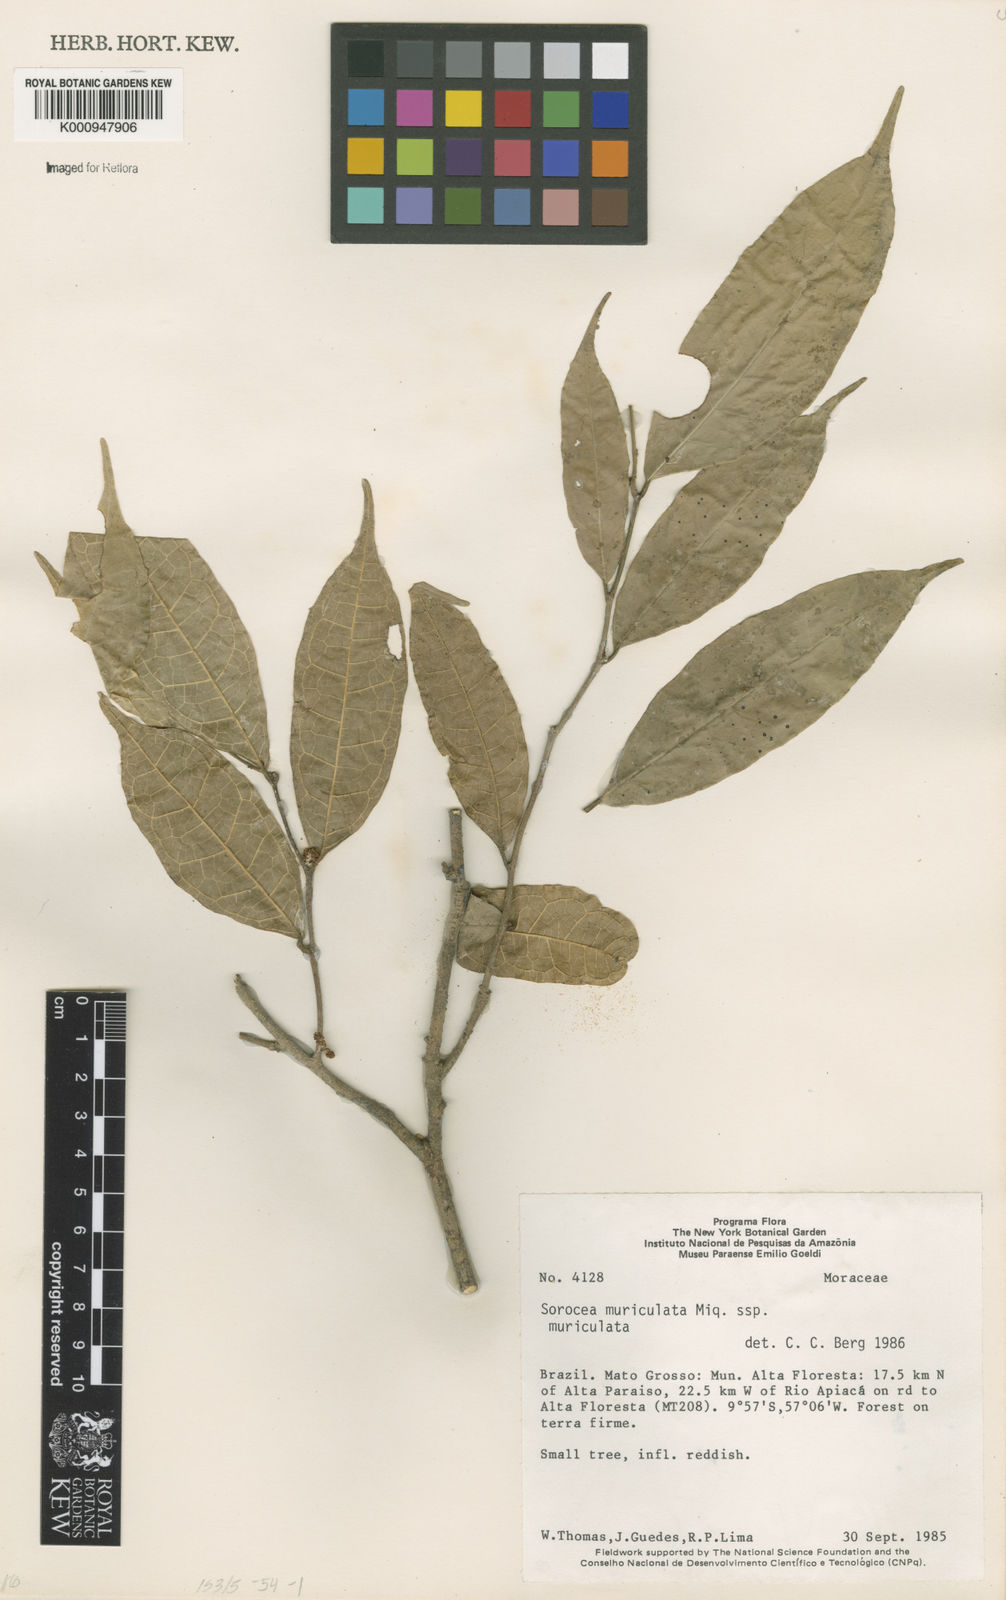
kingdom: Plantae
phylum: Tracheophyta
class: Magnoliopsida
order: Rosales
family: Moraceae
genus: Sorocea
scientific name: Sorocea muriculata
